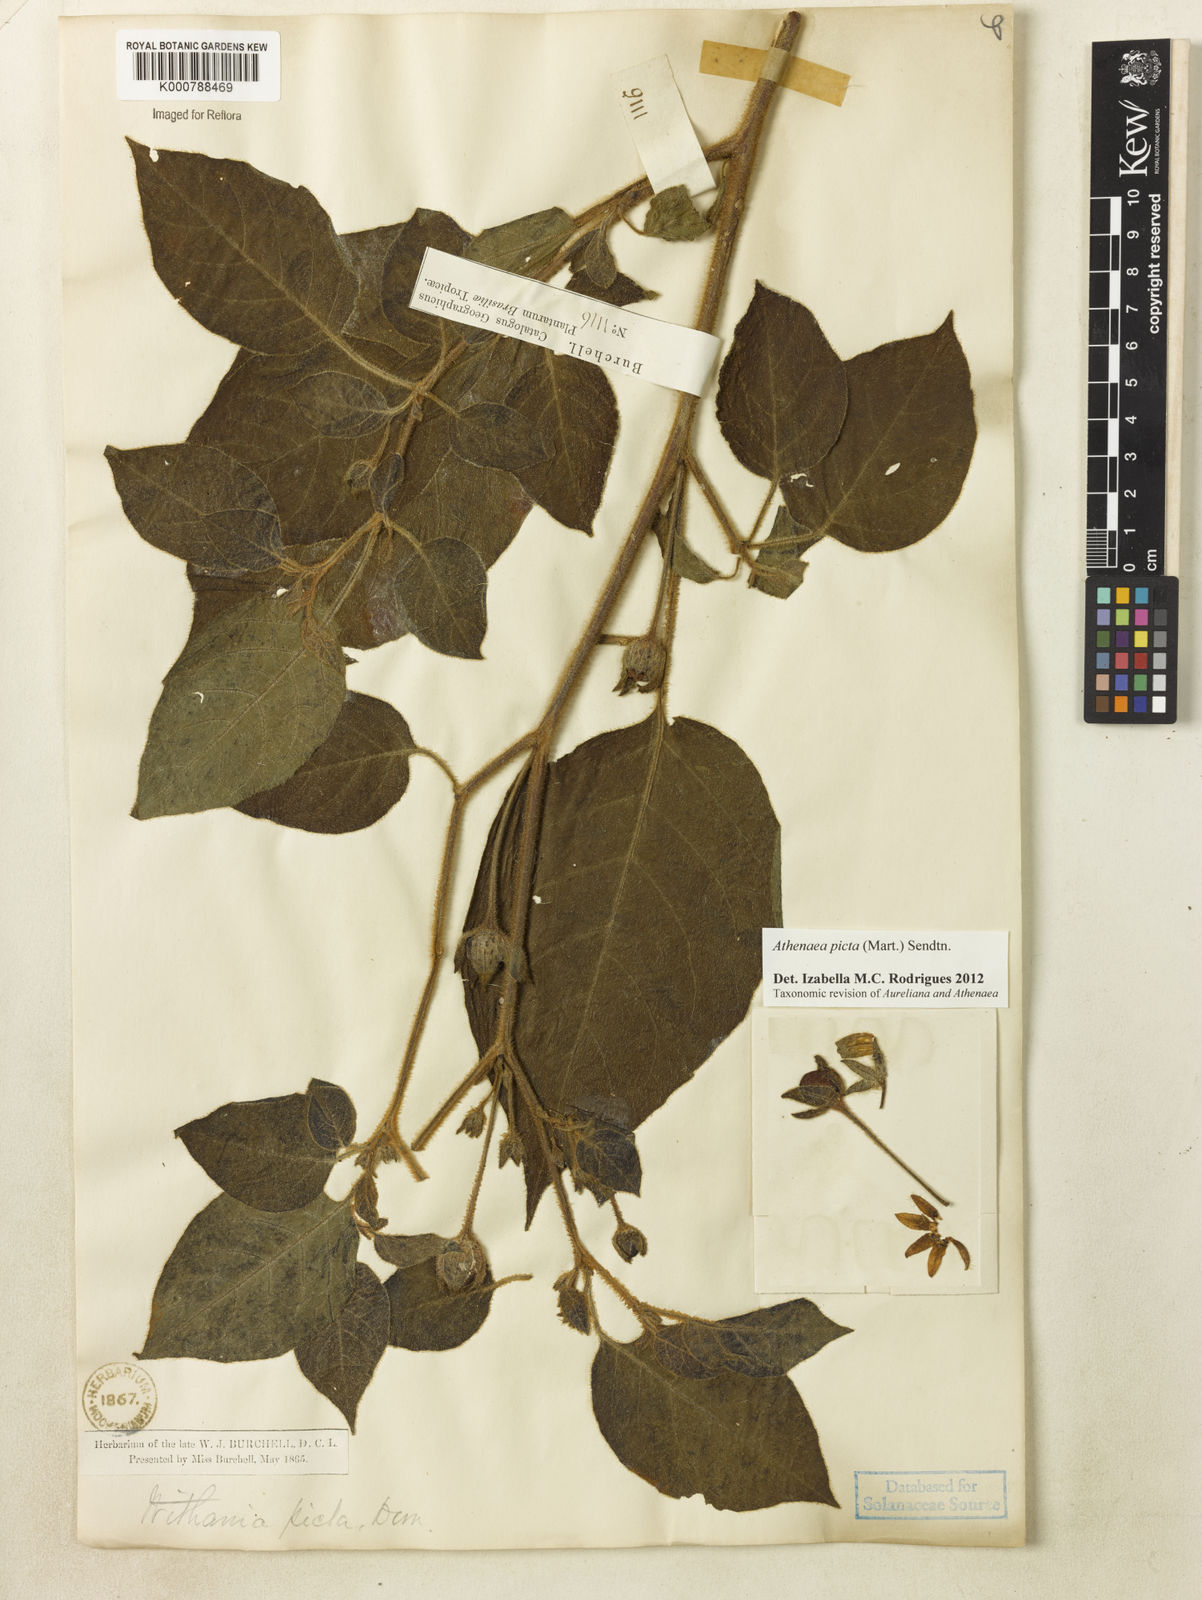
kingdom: Plantae
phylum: Tracheophyta
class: Magnoliopsida
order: Solanales
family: Solanaceae
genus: Athenaea
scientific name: Athenaea picta
